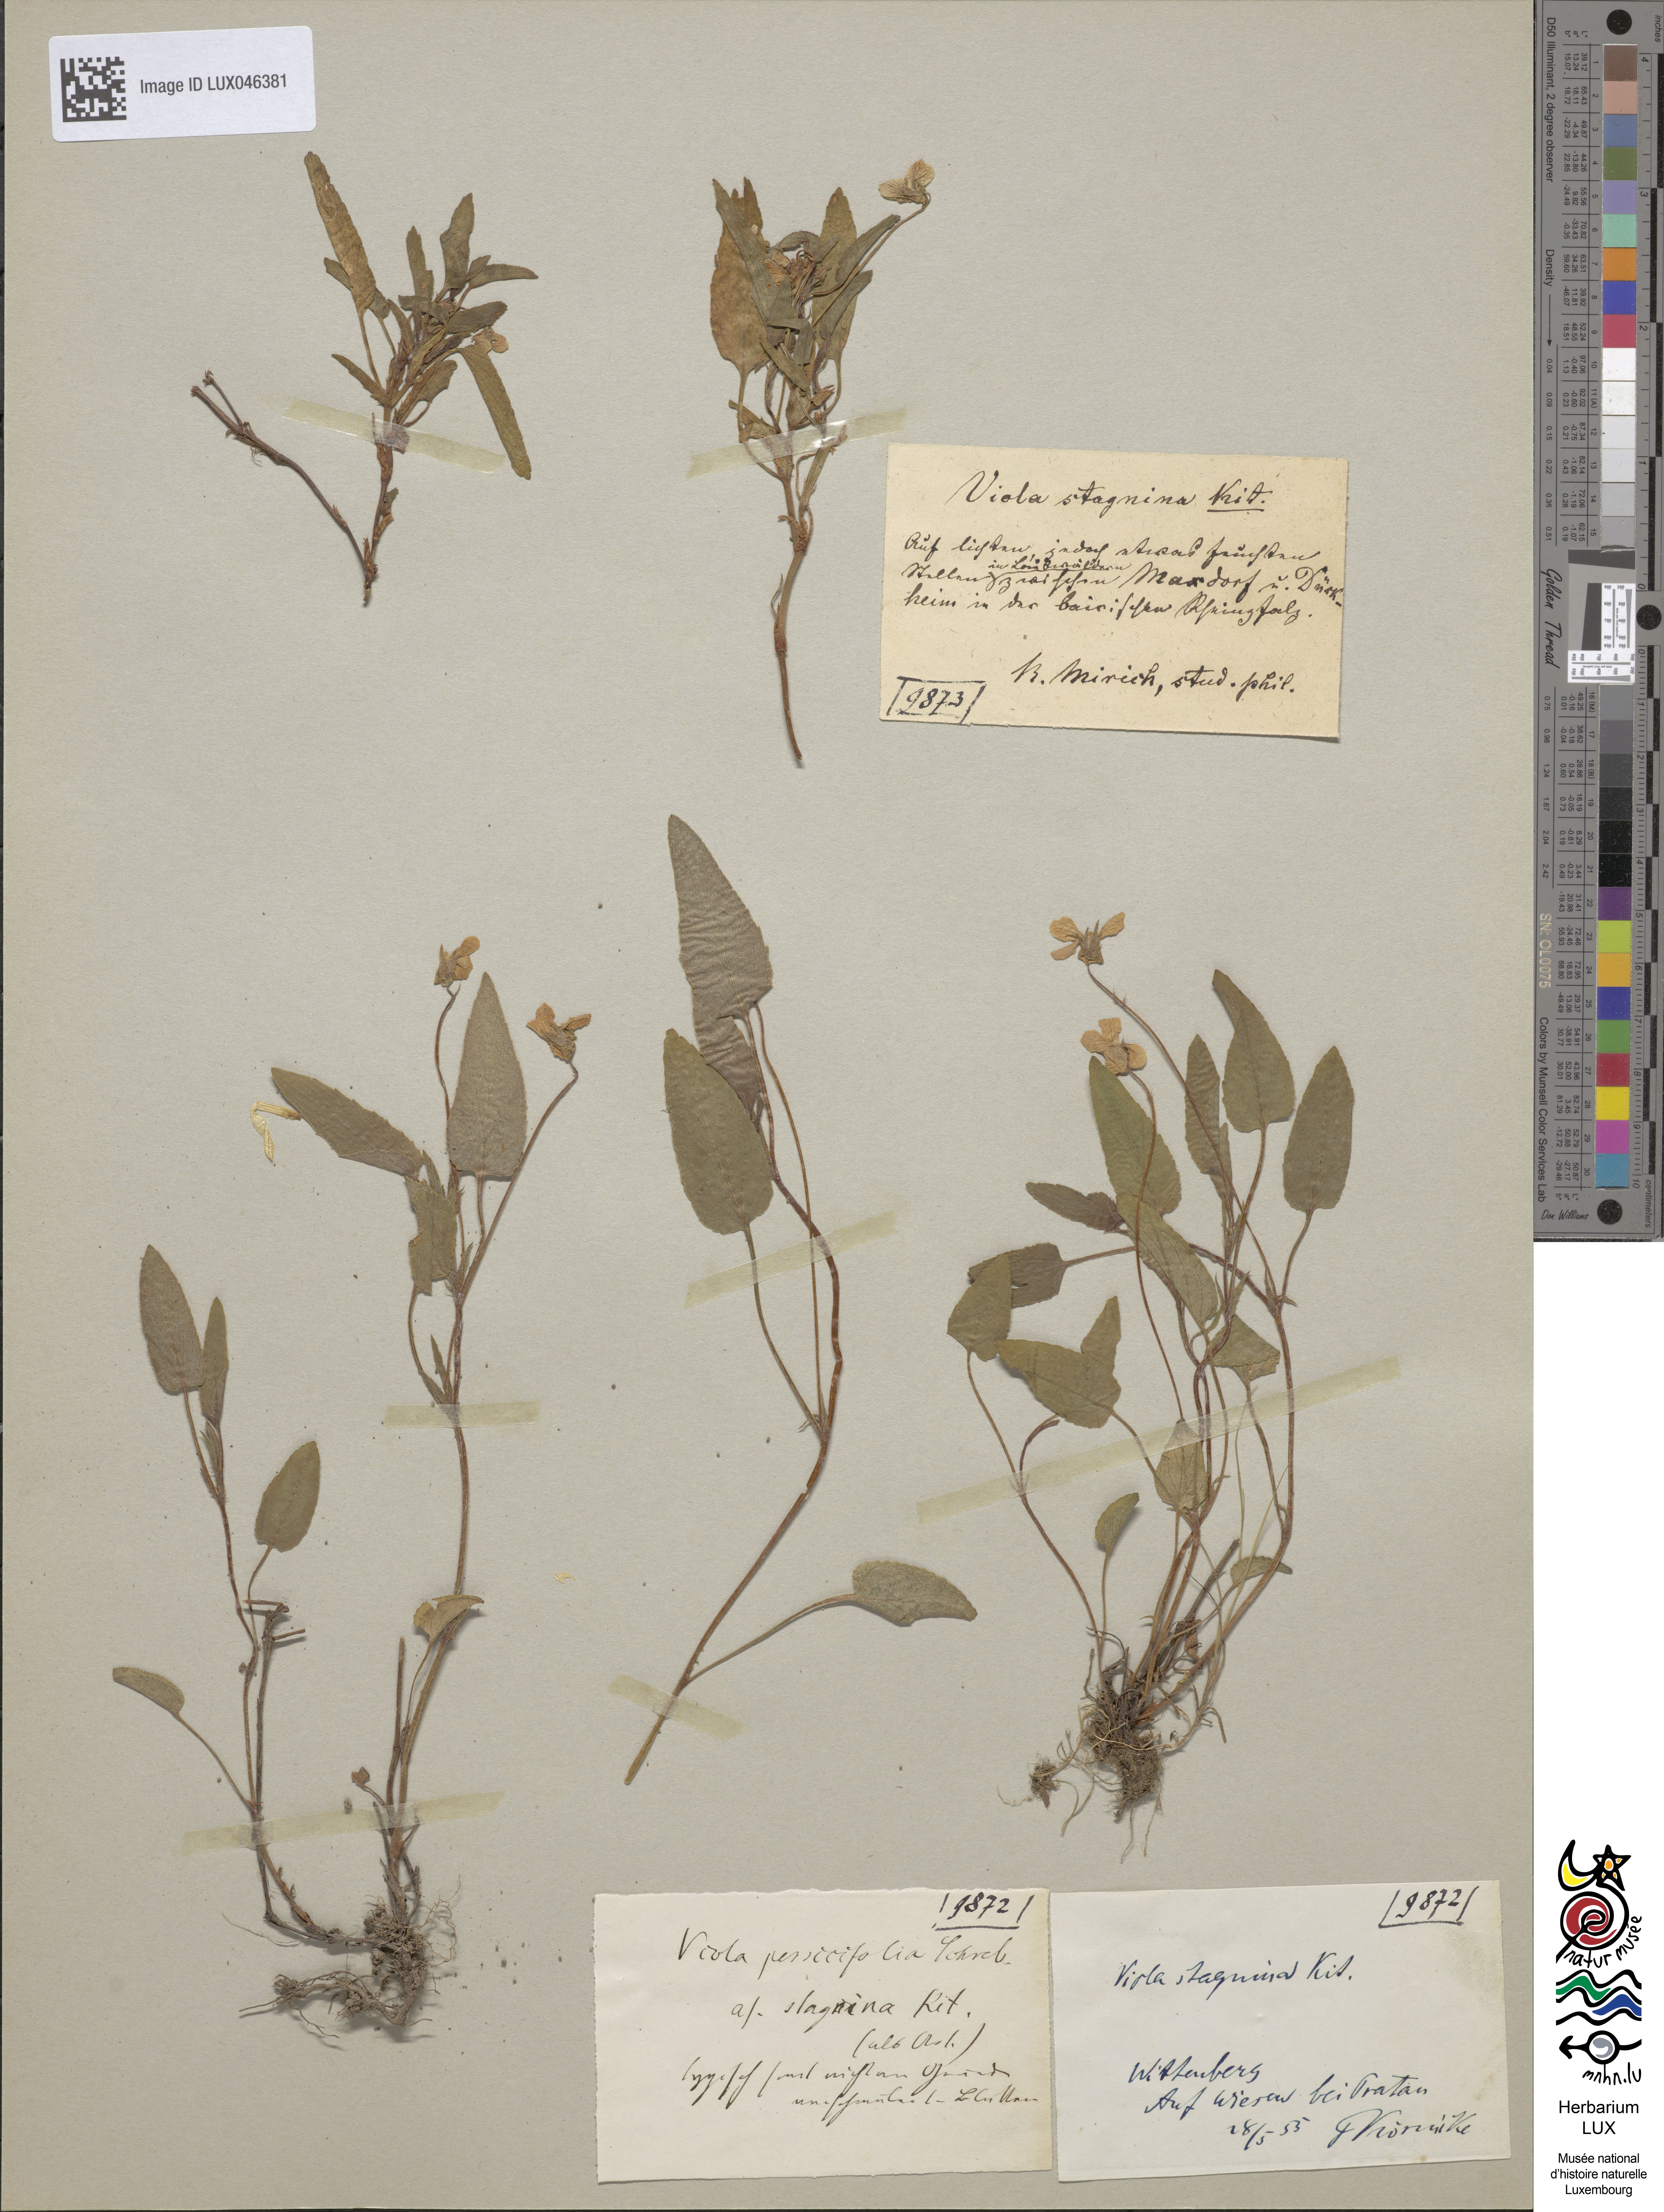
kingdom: Plantae
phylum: Tracheophyta
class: Magnoliopsida
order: Malpighiales
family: Violaceae
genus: Viola
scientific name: Viola stagnina
